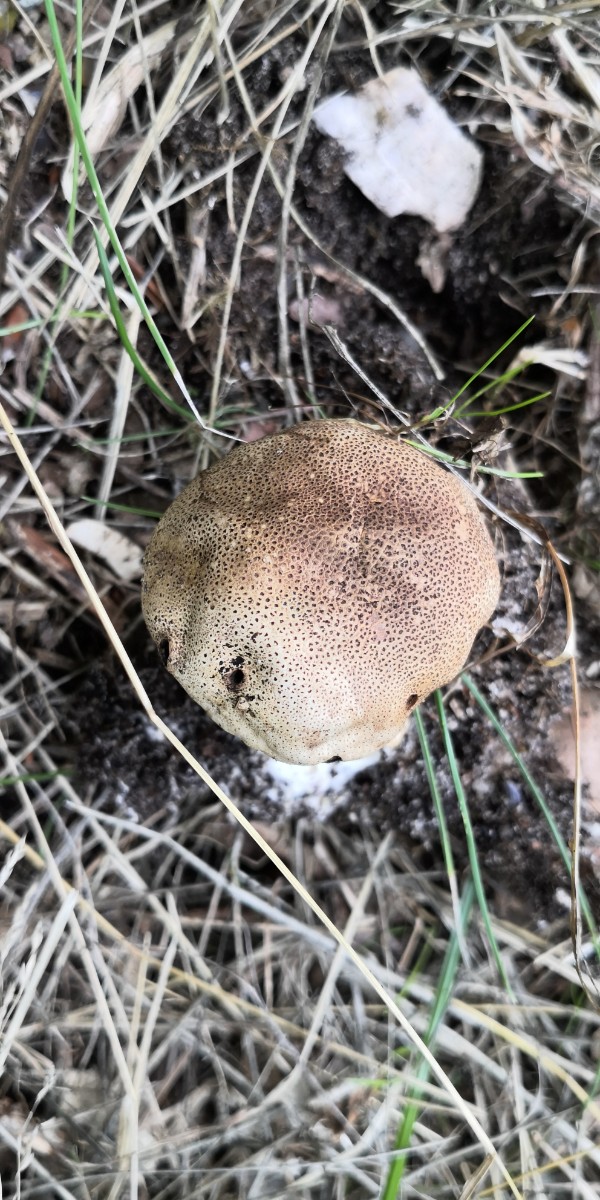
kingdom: Fungi
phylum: Basidiomycota
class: Agaricomycetes
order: Boletales
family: Sclerodermataceae
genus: Scleroderma
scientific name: Scleroderma verrucosum
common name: stilket bruskbold
